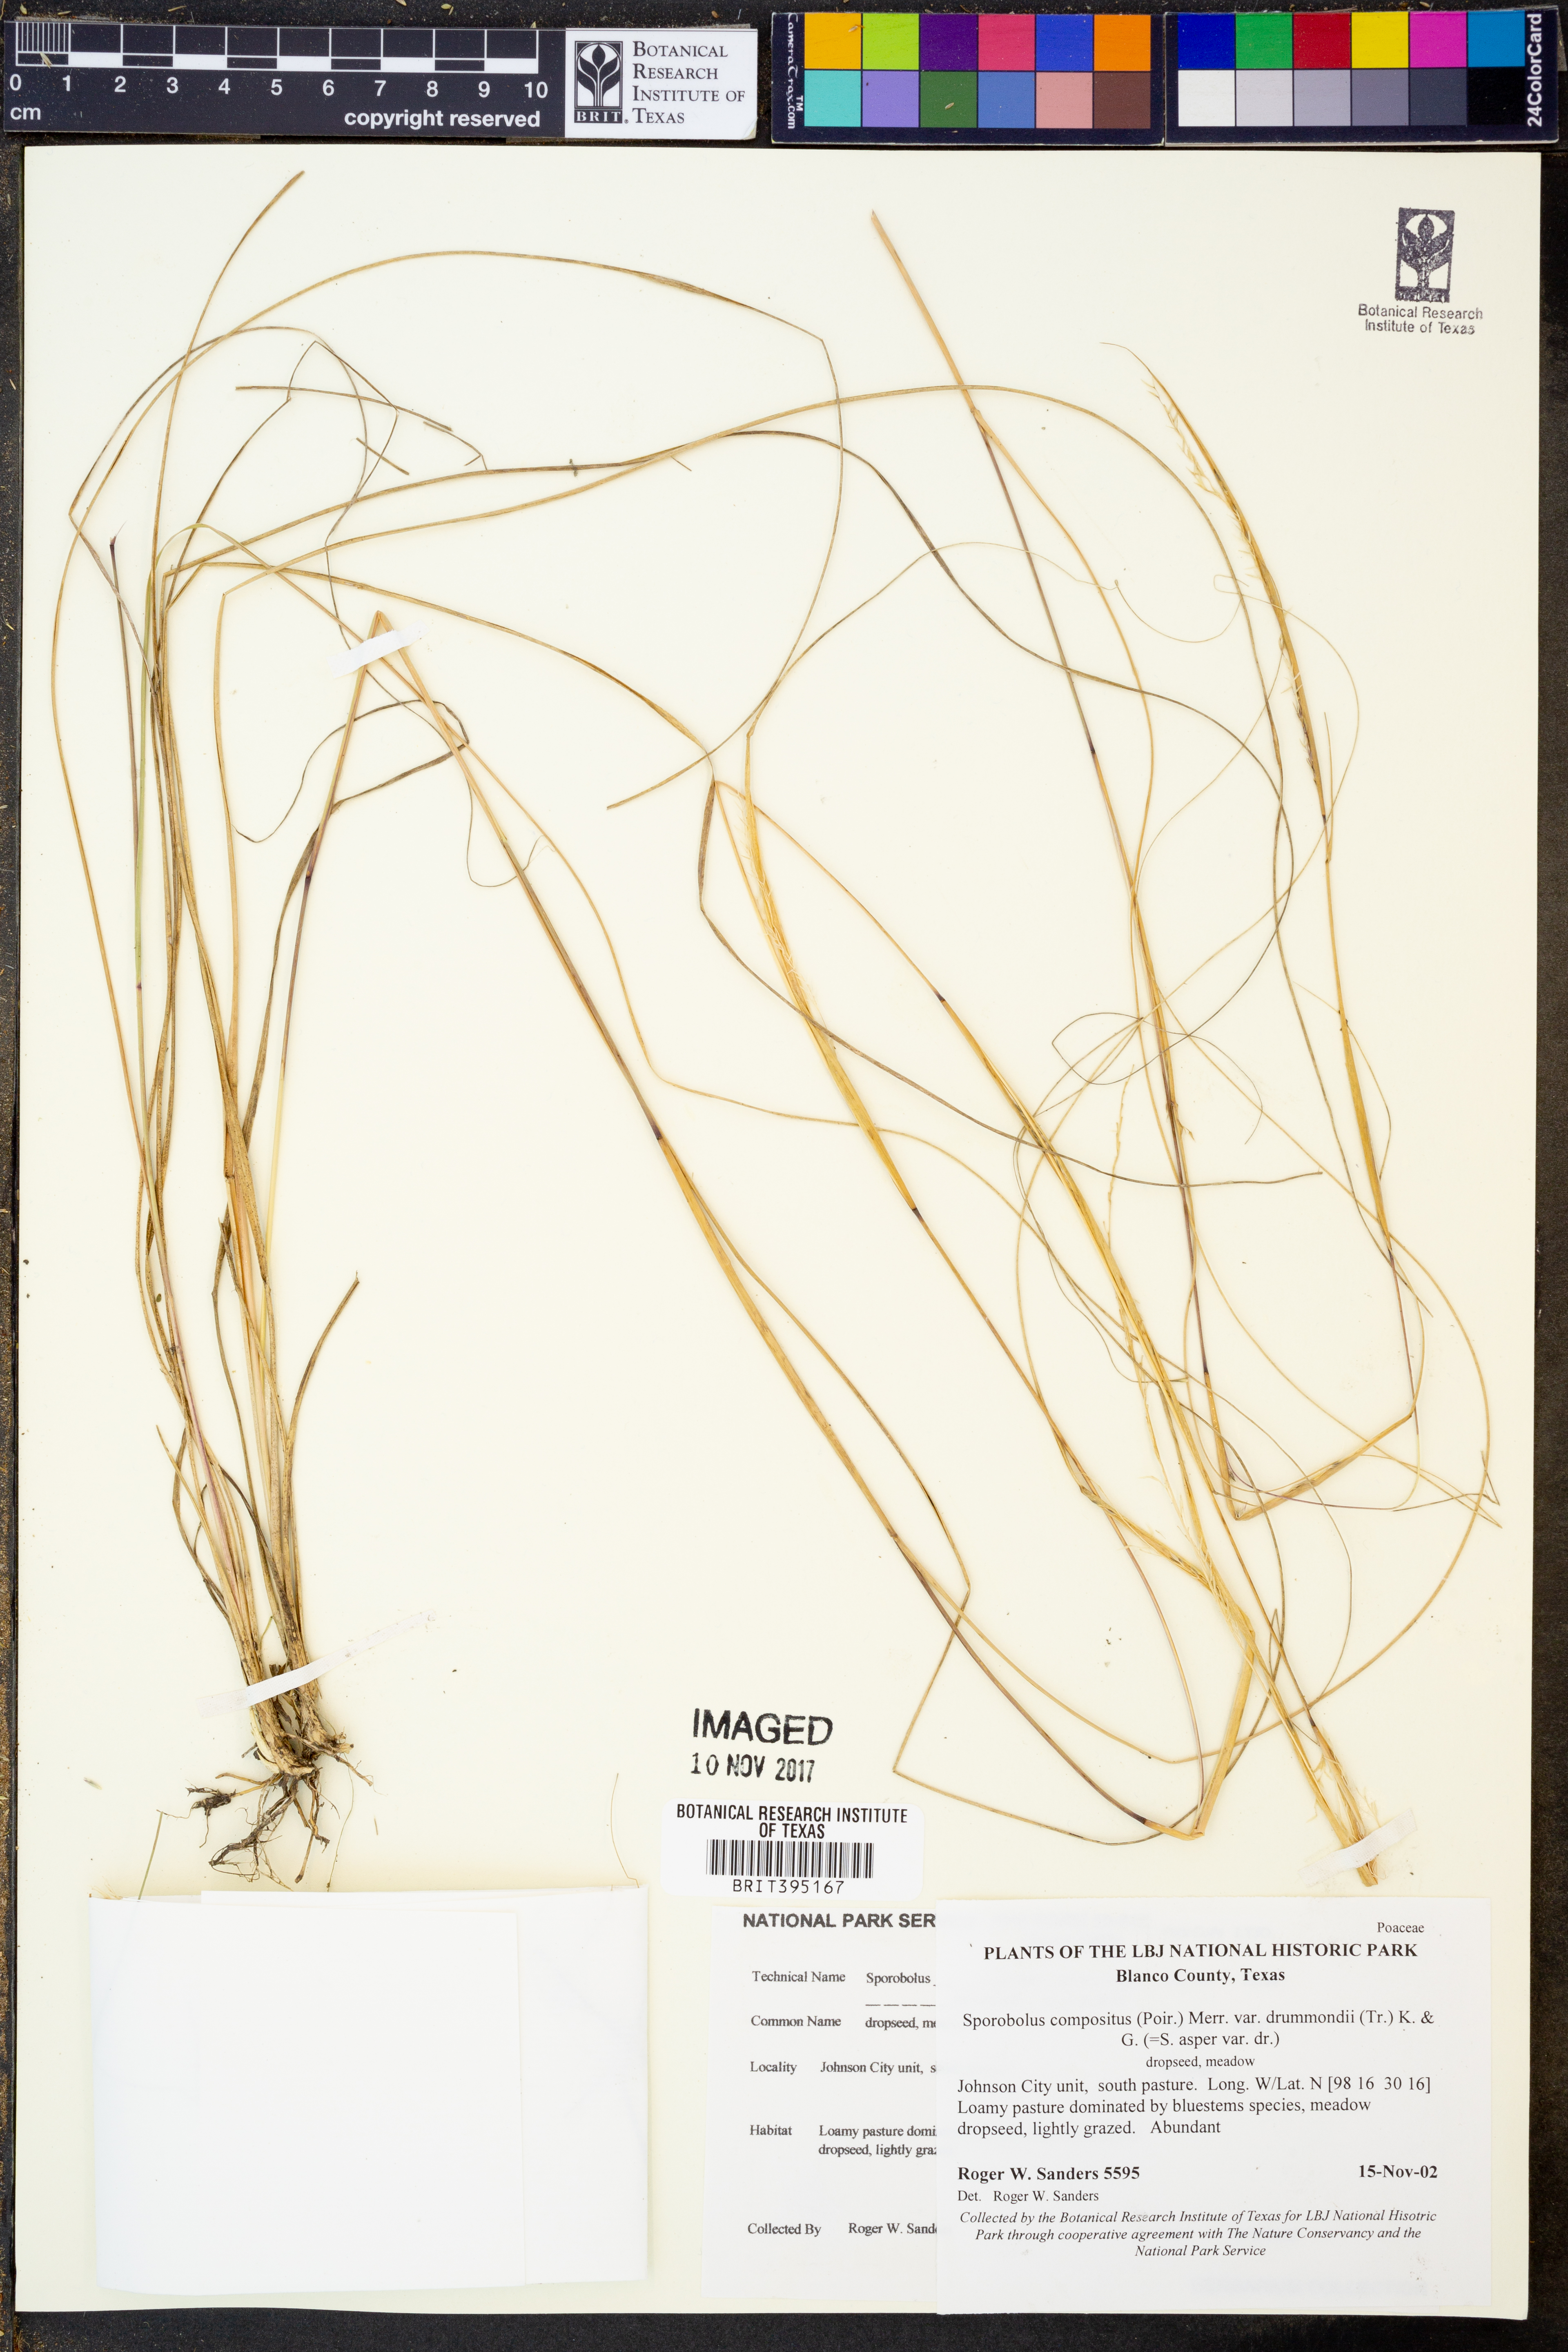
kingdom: Plantae
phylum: Tracheophyta
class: Liliopsida
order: Poales
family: Poaceae
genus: Sporobolus
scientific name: Sporobolus compositus
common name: Rough dropseed
